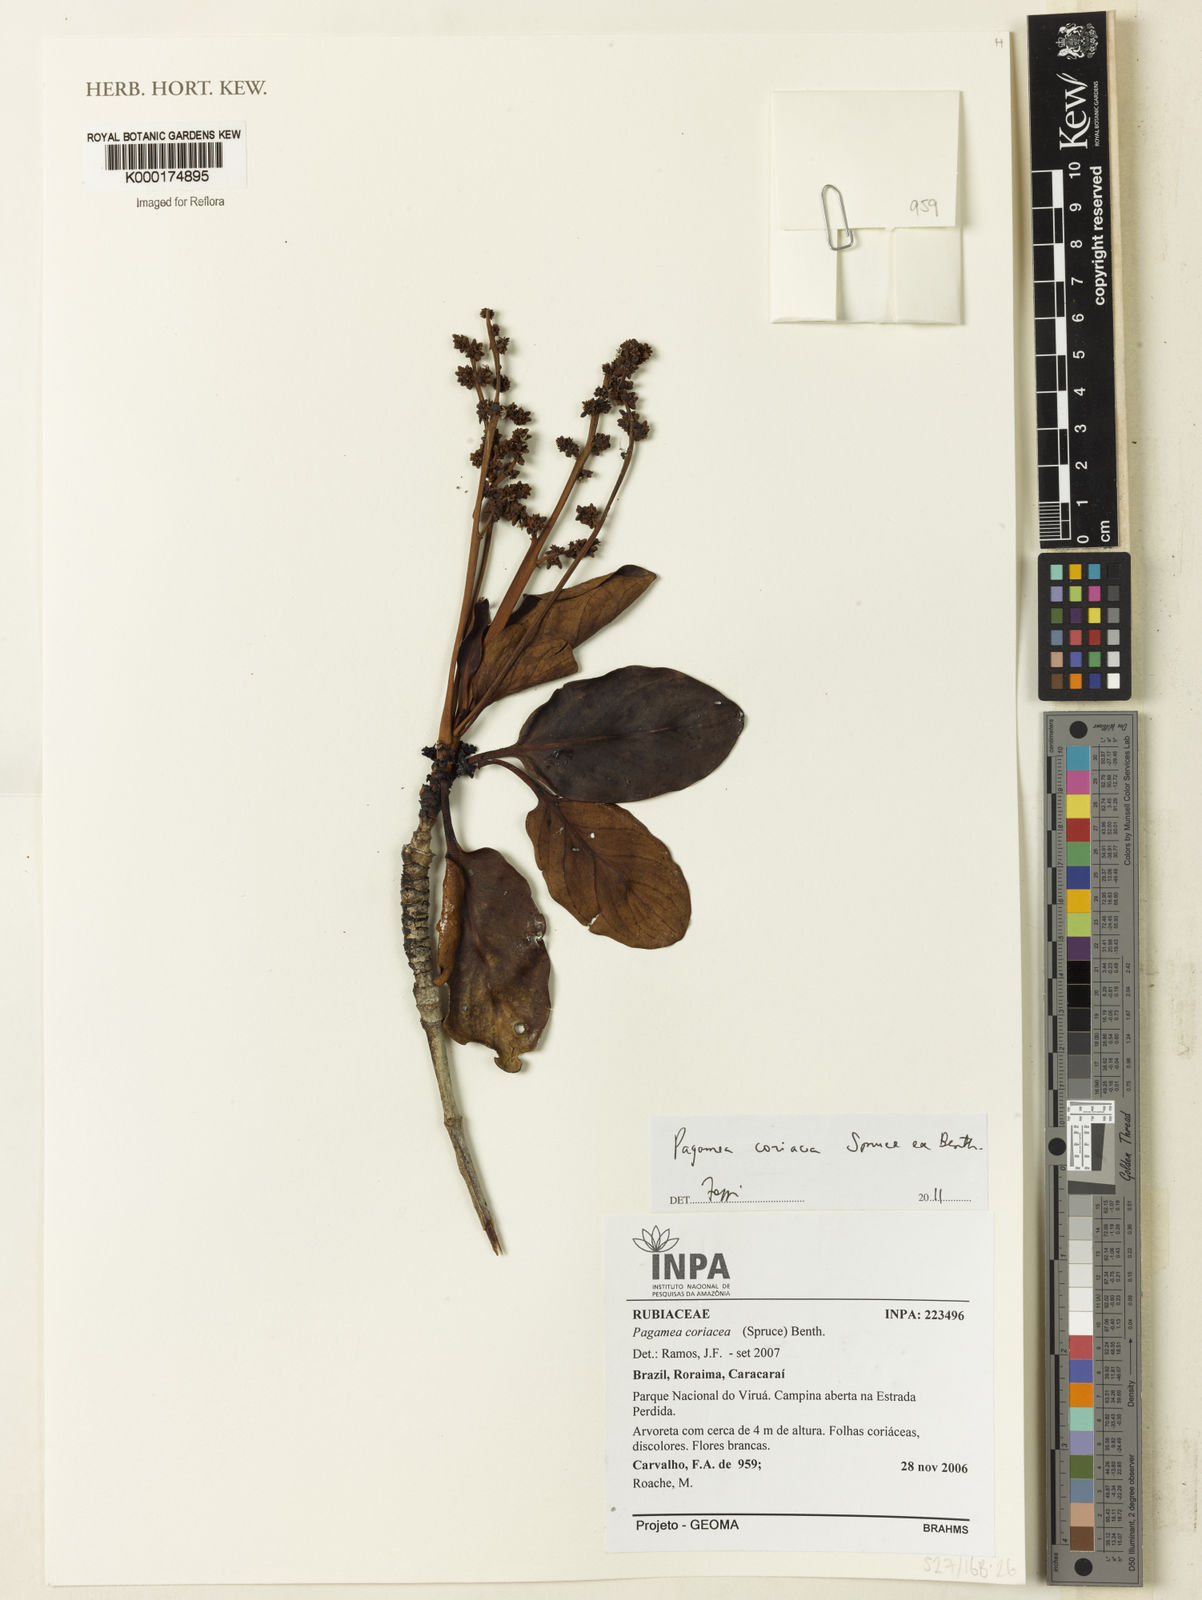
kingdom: Plantae
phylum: Tracheophyta
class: Magnoliopsida
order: Gentianales
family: Rubiaceae
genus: Pagamea
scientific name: Pagamea coriacea
